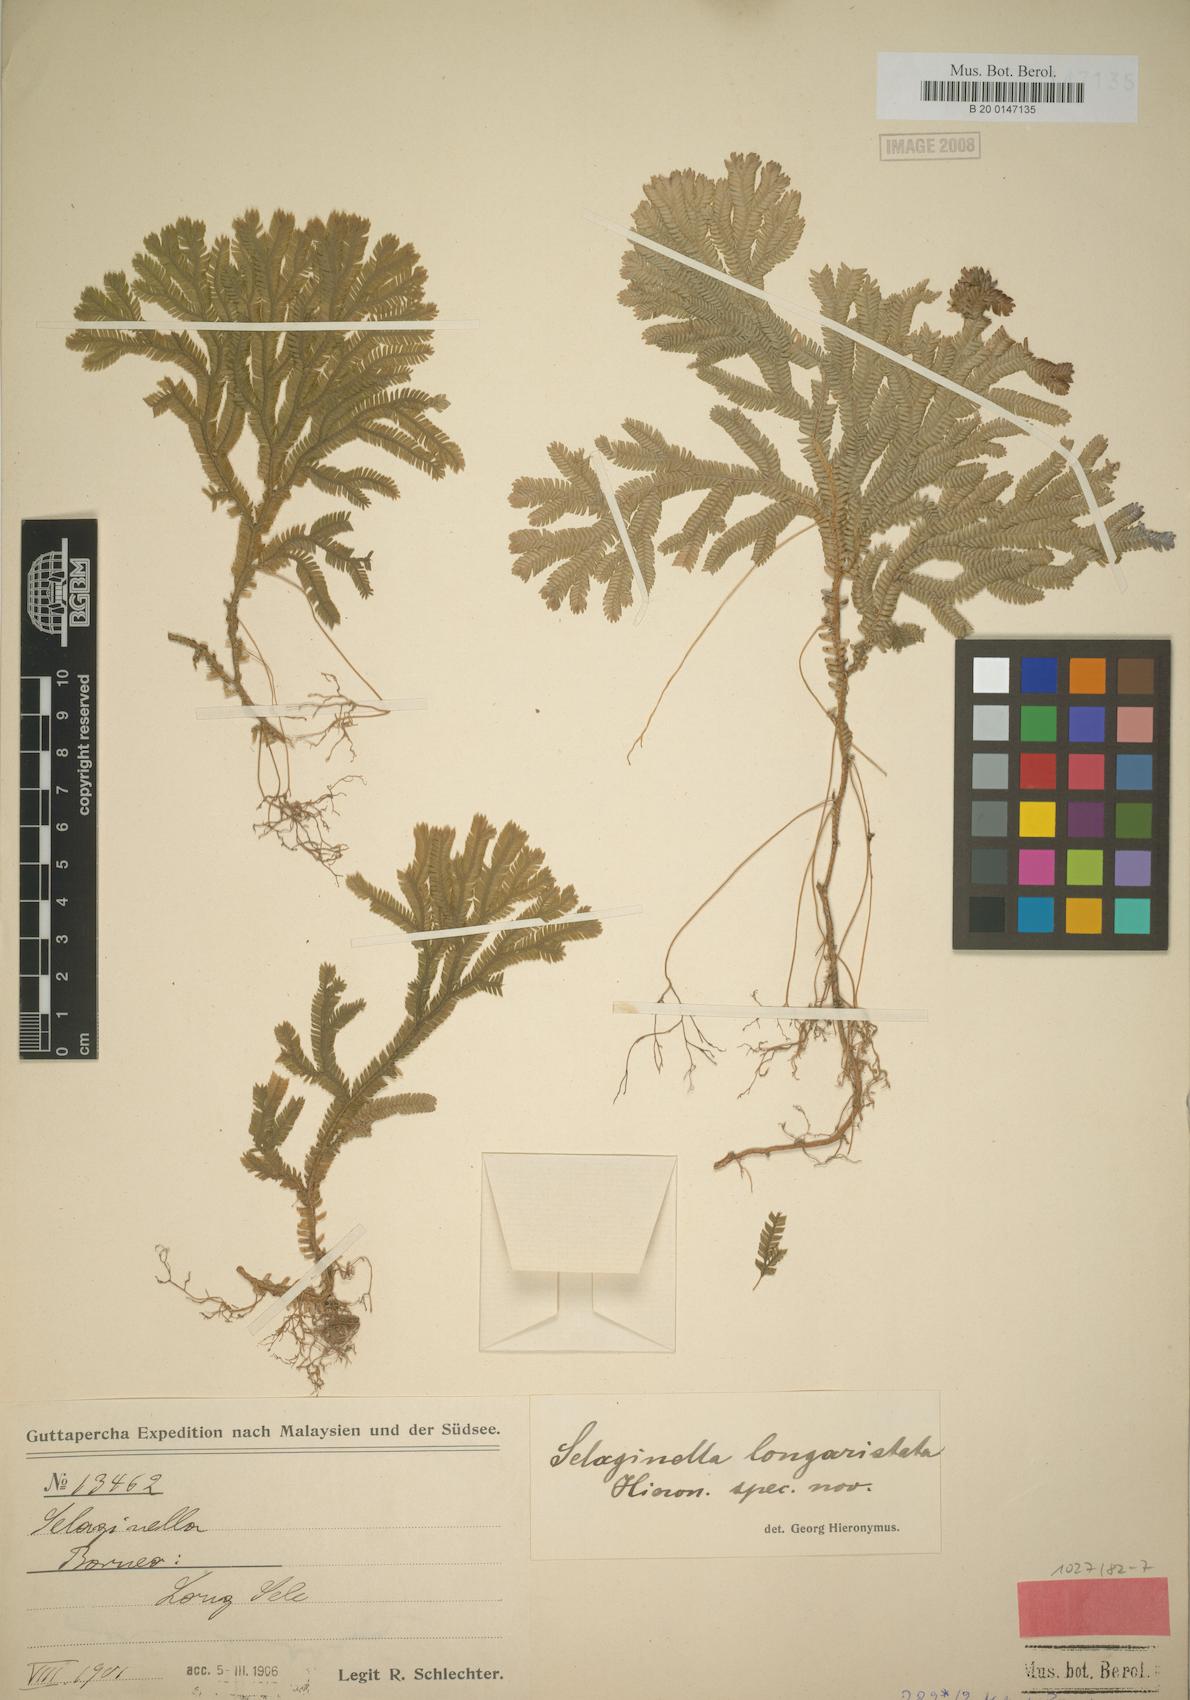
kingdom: Plantae
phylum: Tracheophyta
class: Lycopodiopsida
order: Selaginellales
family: Selaginellaceae
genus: Selaginella
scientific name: Selaginella longiaristata
